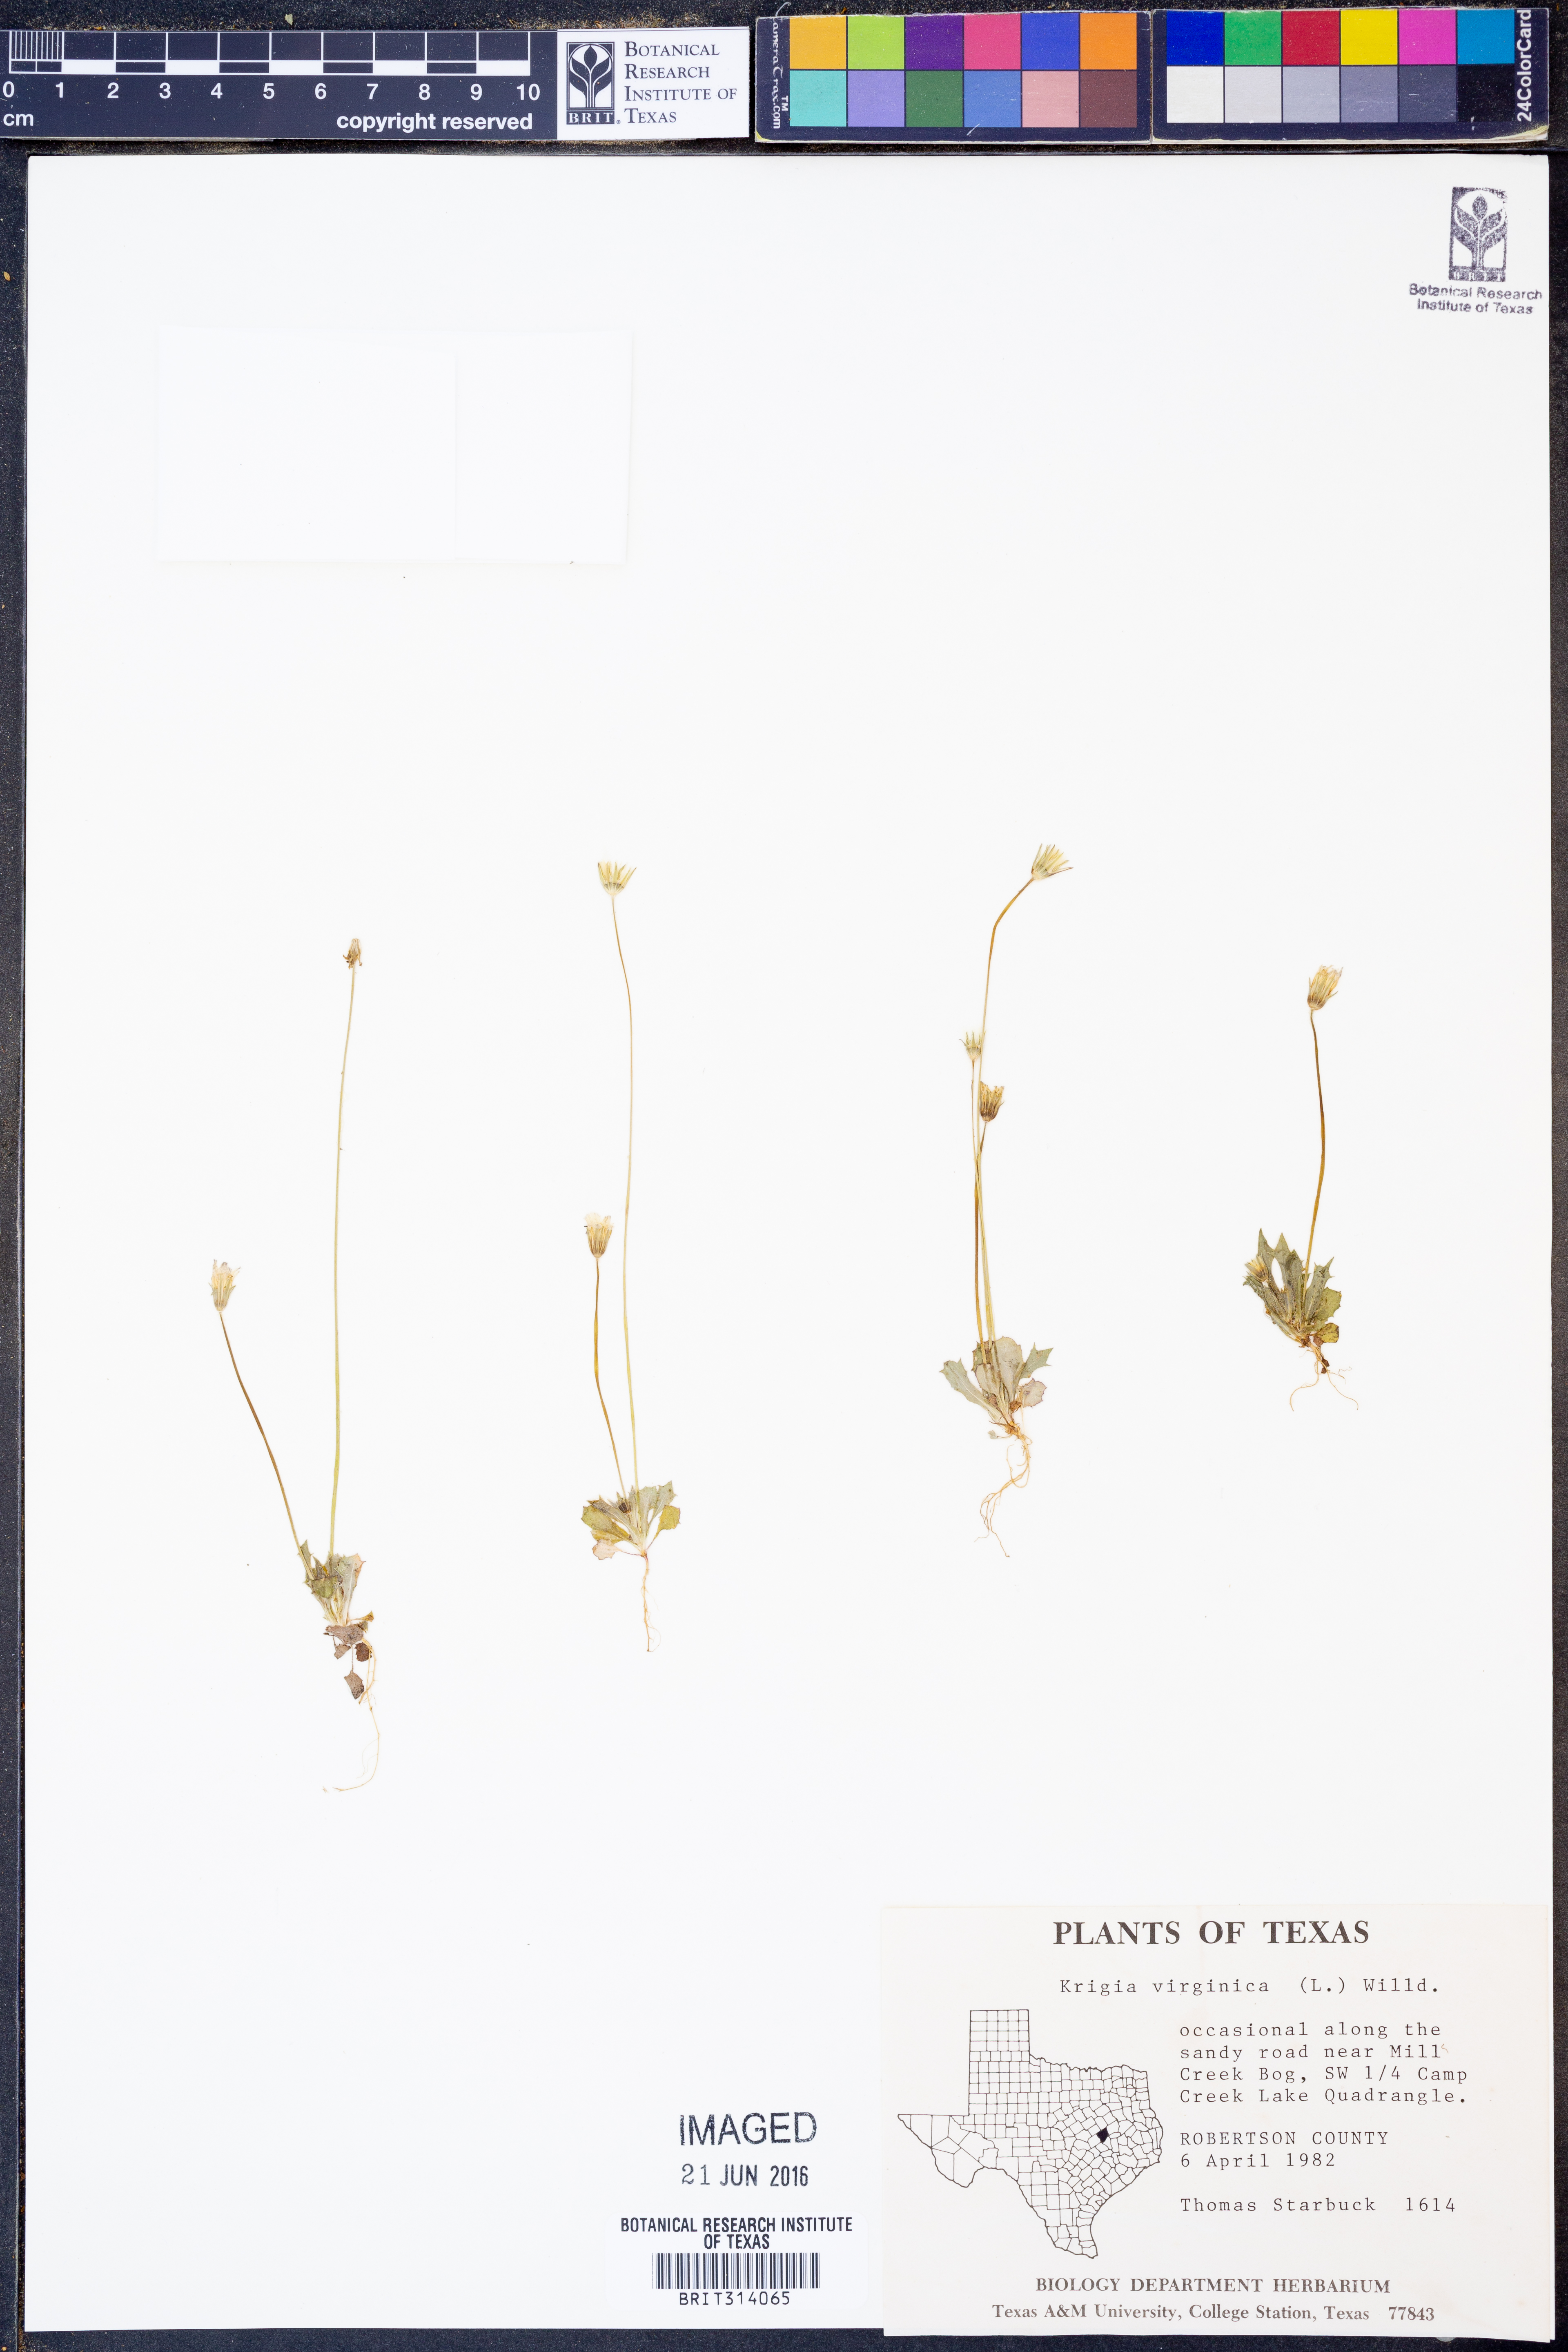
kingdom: Plantae
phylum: Tracheophyta
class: Magnoliopsida
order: Asterales
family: Asteraceae
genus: Krigia
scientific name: Krigia virginica
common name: Virginia dwarf-dandelion
